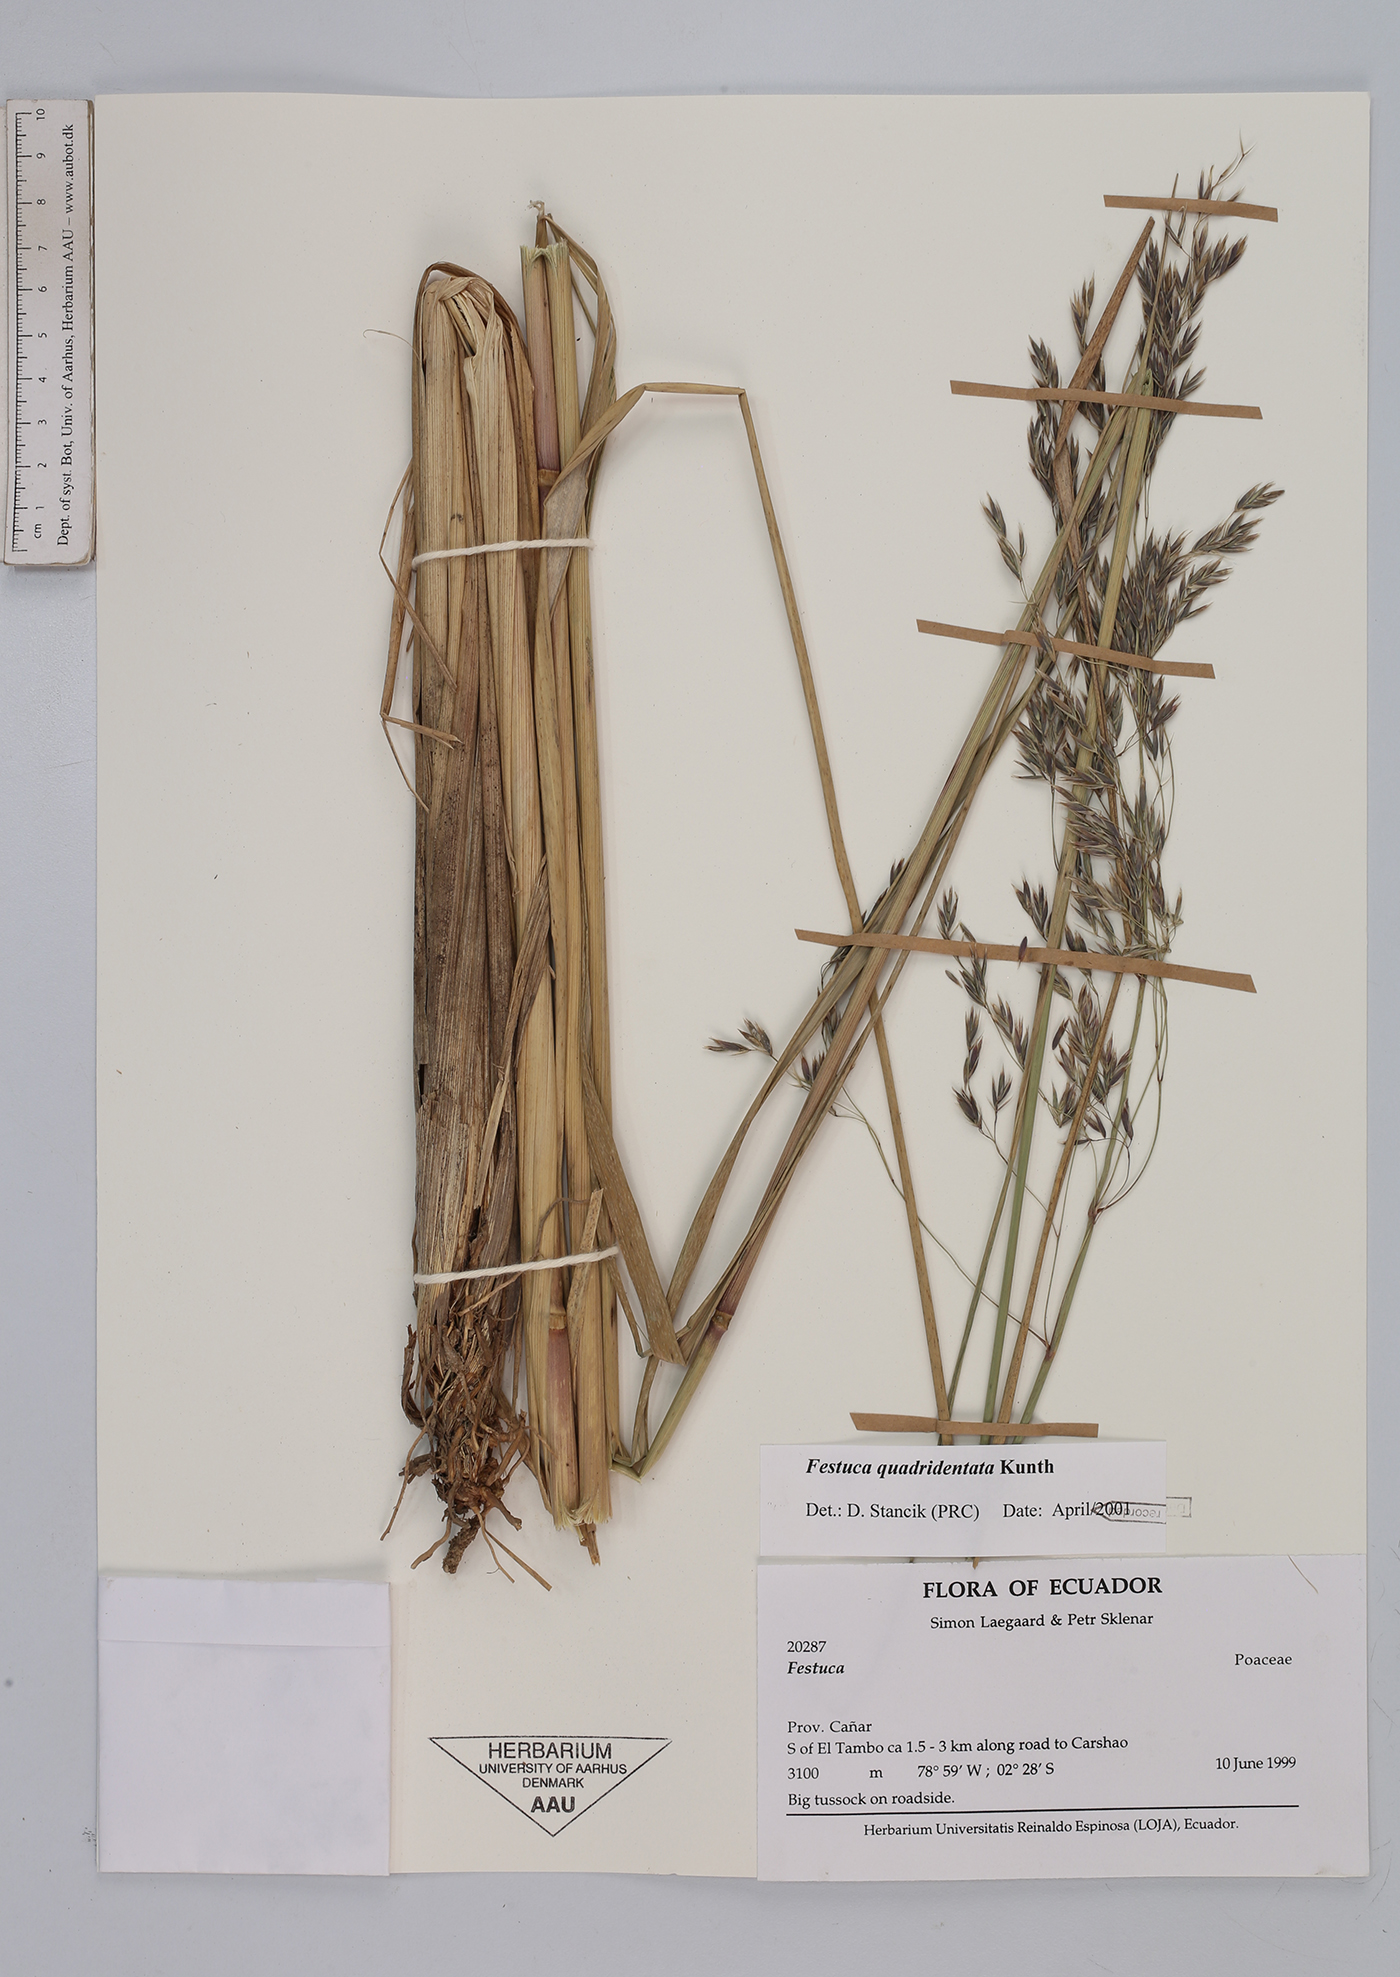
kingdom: Plantae
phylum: Tracheophyta
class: Liliopsida
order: Poales
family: Poaceae
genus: Festuca
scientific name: Festuca quadridentata
